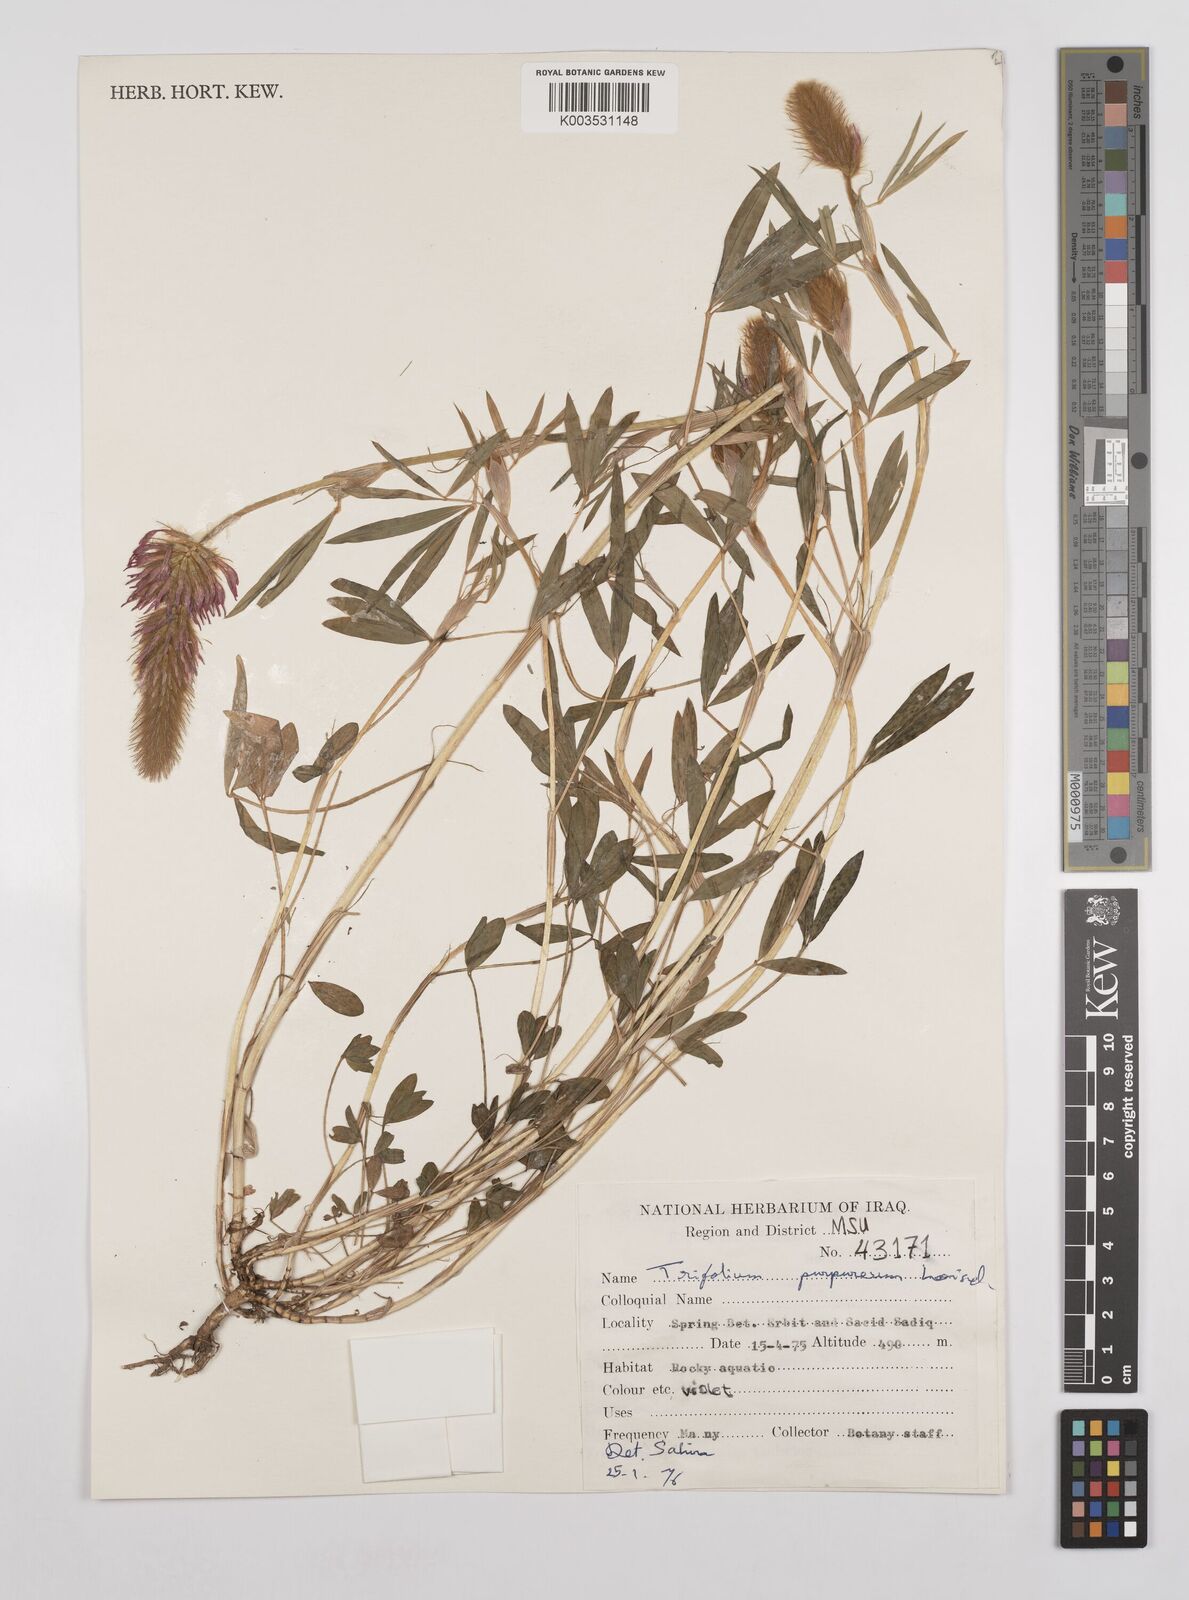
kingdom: Plantae
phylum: Tracheophyta
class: Magnoliopsida
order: Fabales
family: Fabaceae
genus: Trifolium
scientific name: Trifolium purpureum
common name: Purple clover
